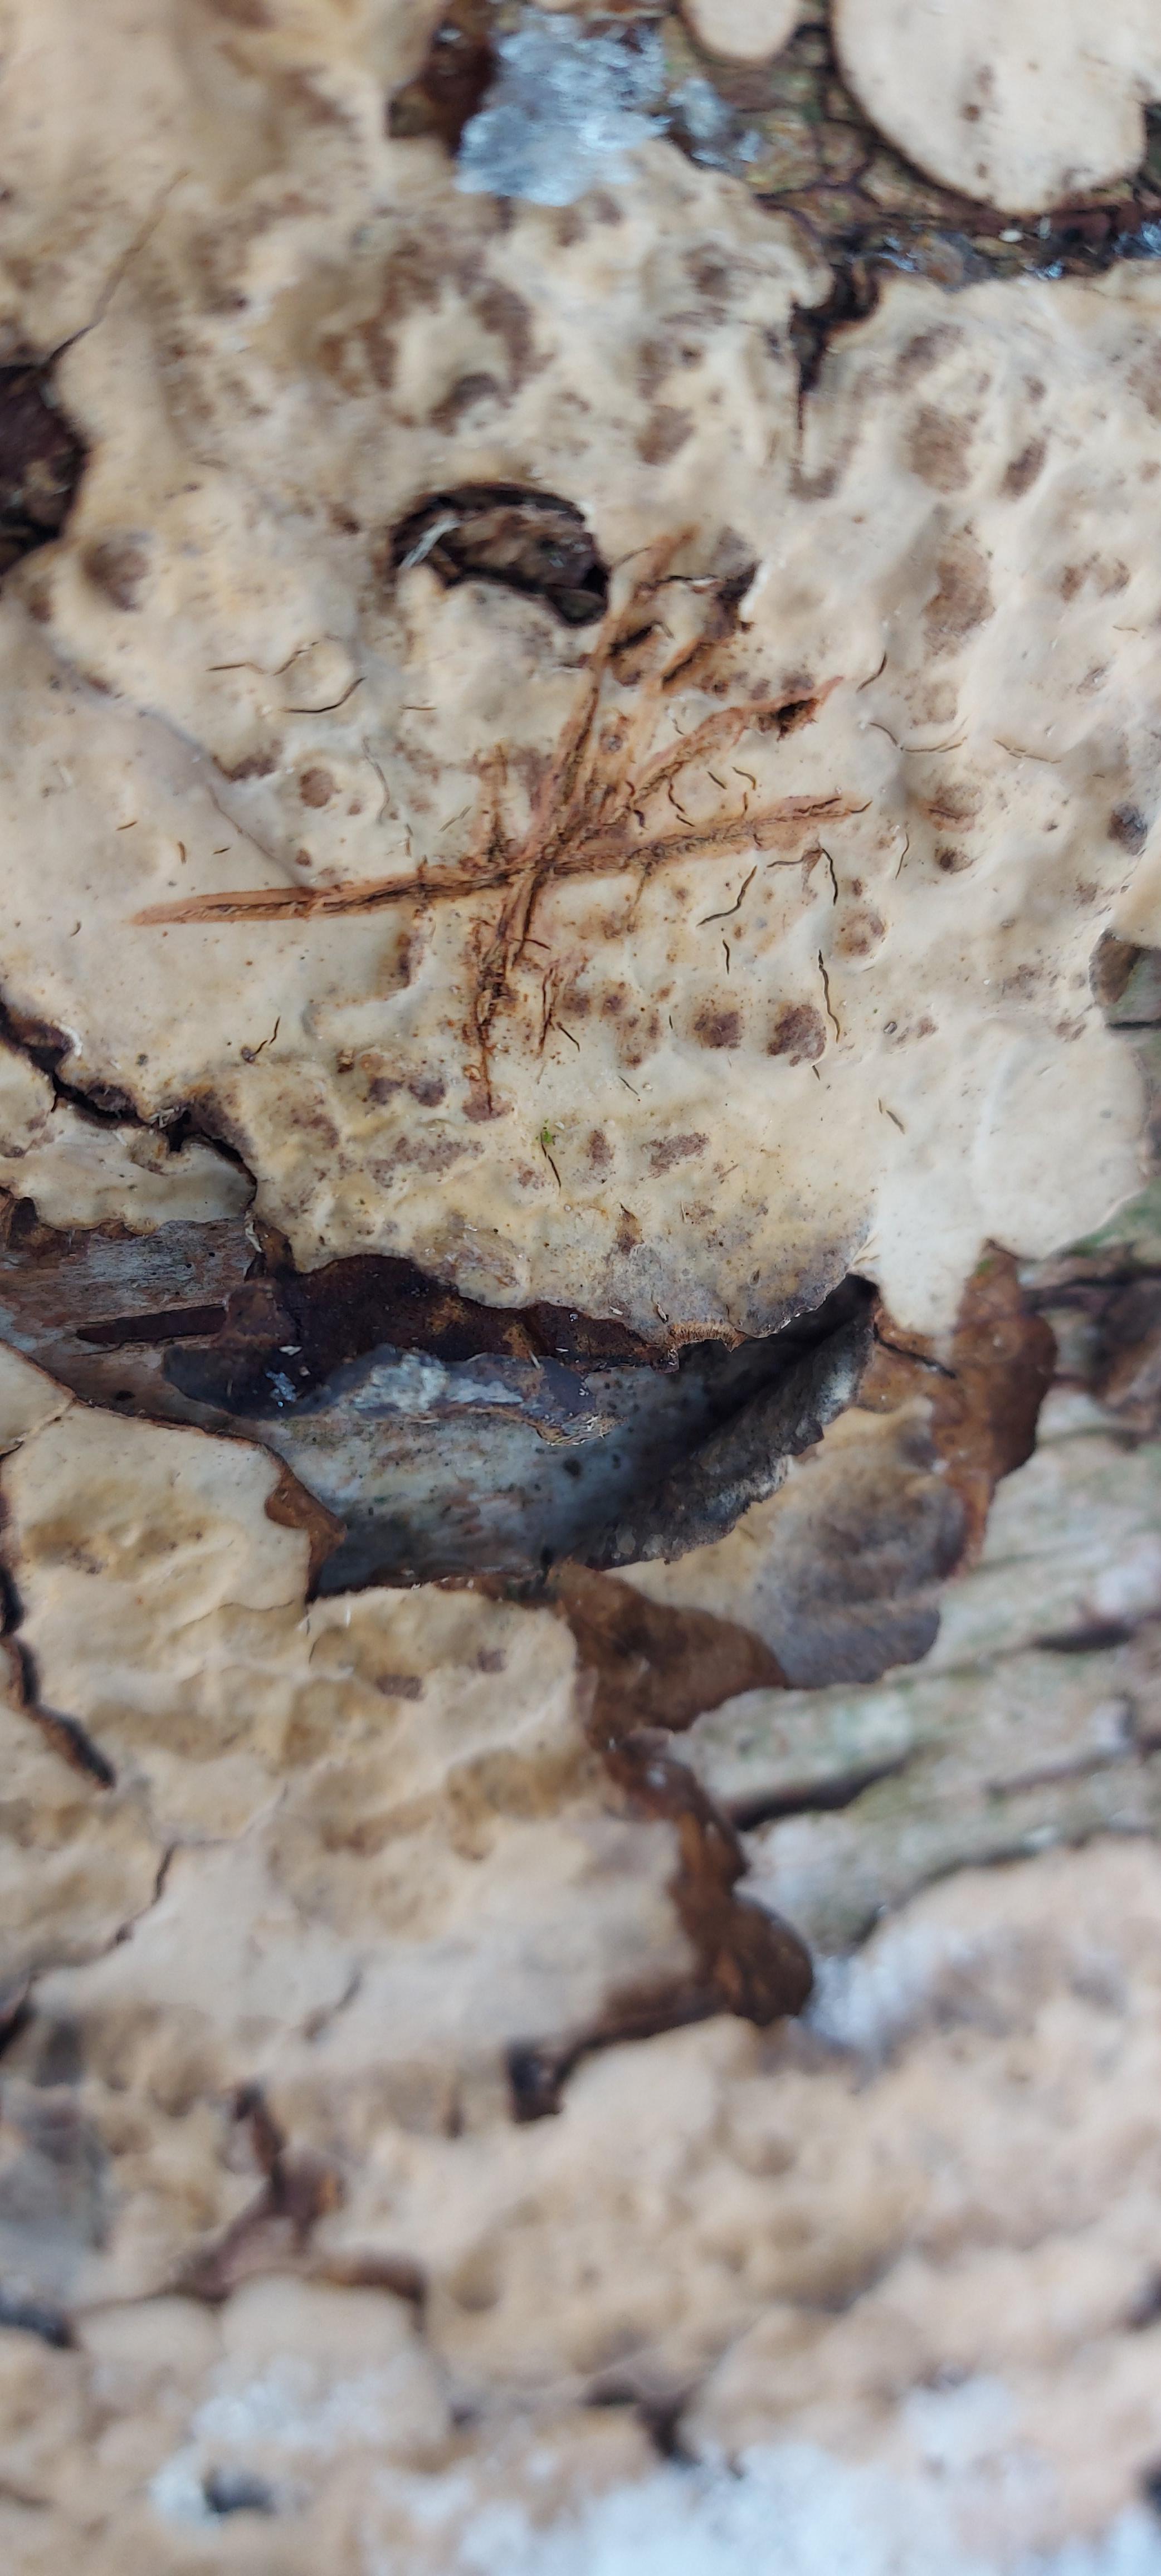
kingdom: Fungi
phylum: Basidiomycota
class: Agaricomycetes
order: Russulales
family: Stereaceae
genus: Stereum
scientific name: Stereum rugosum
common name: rynket lædersvamp
